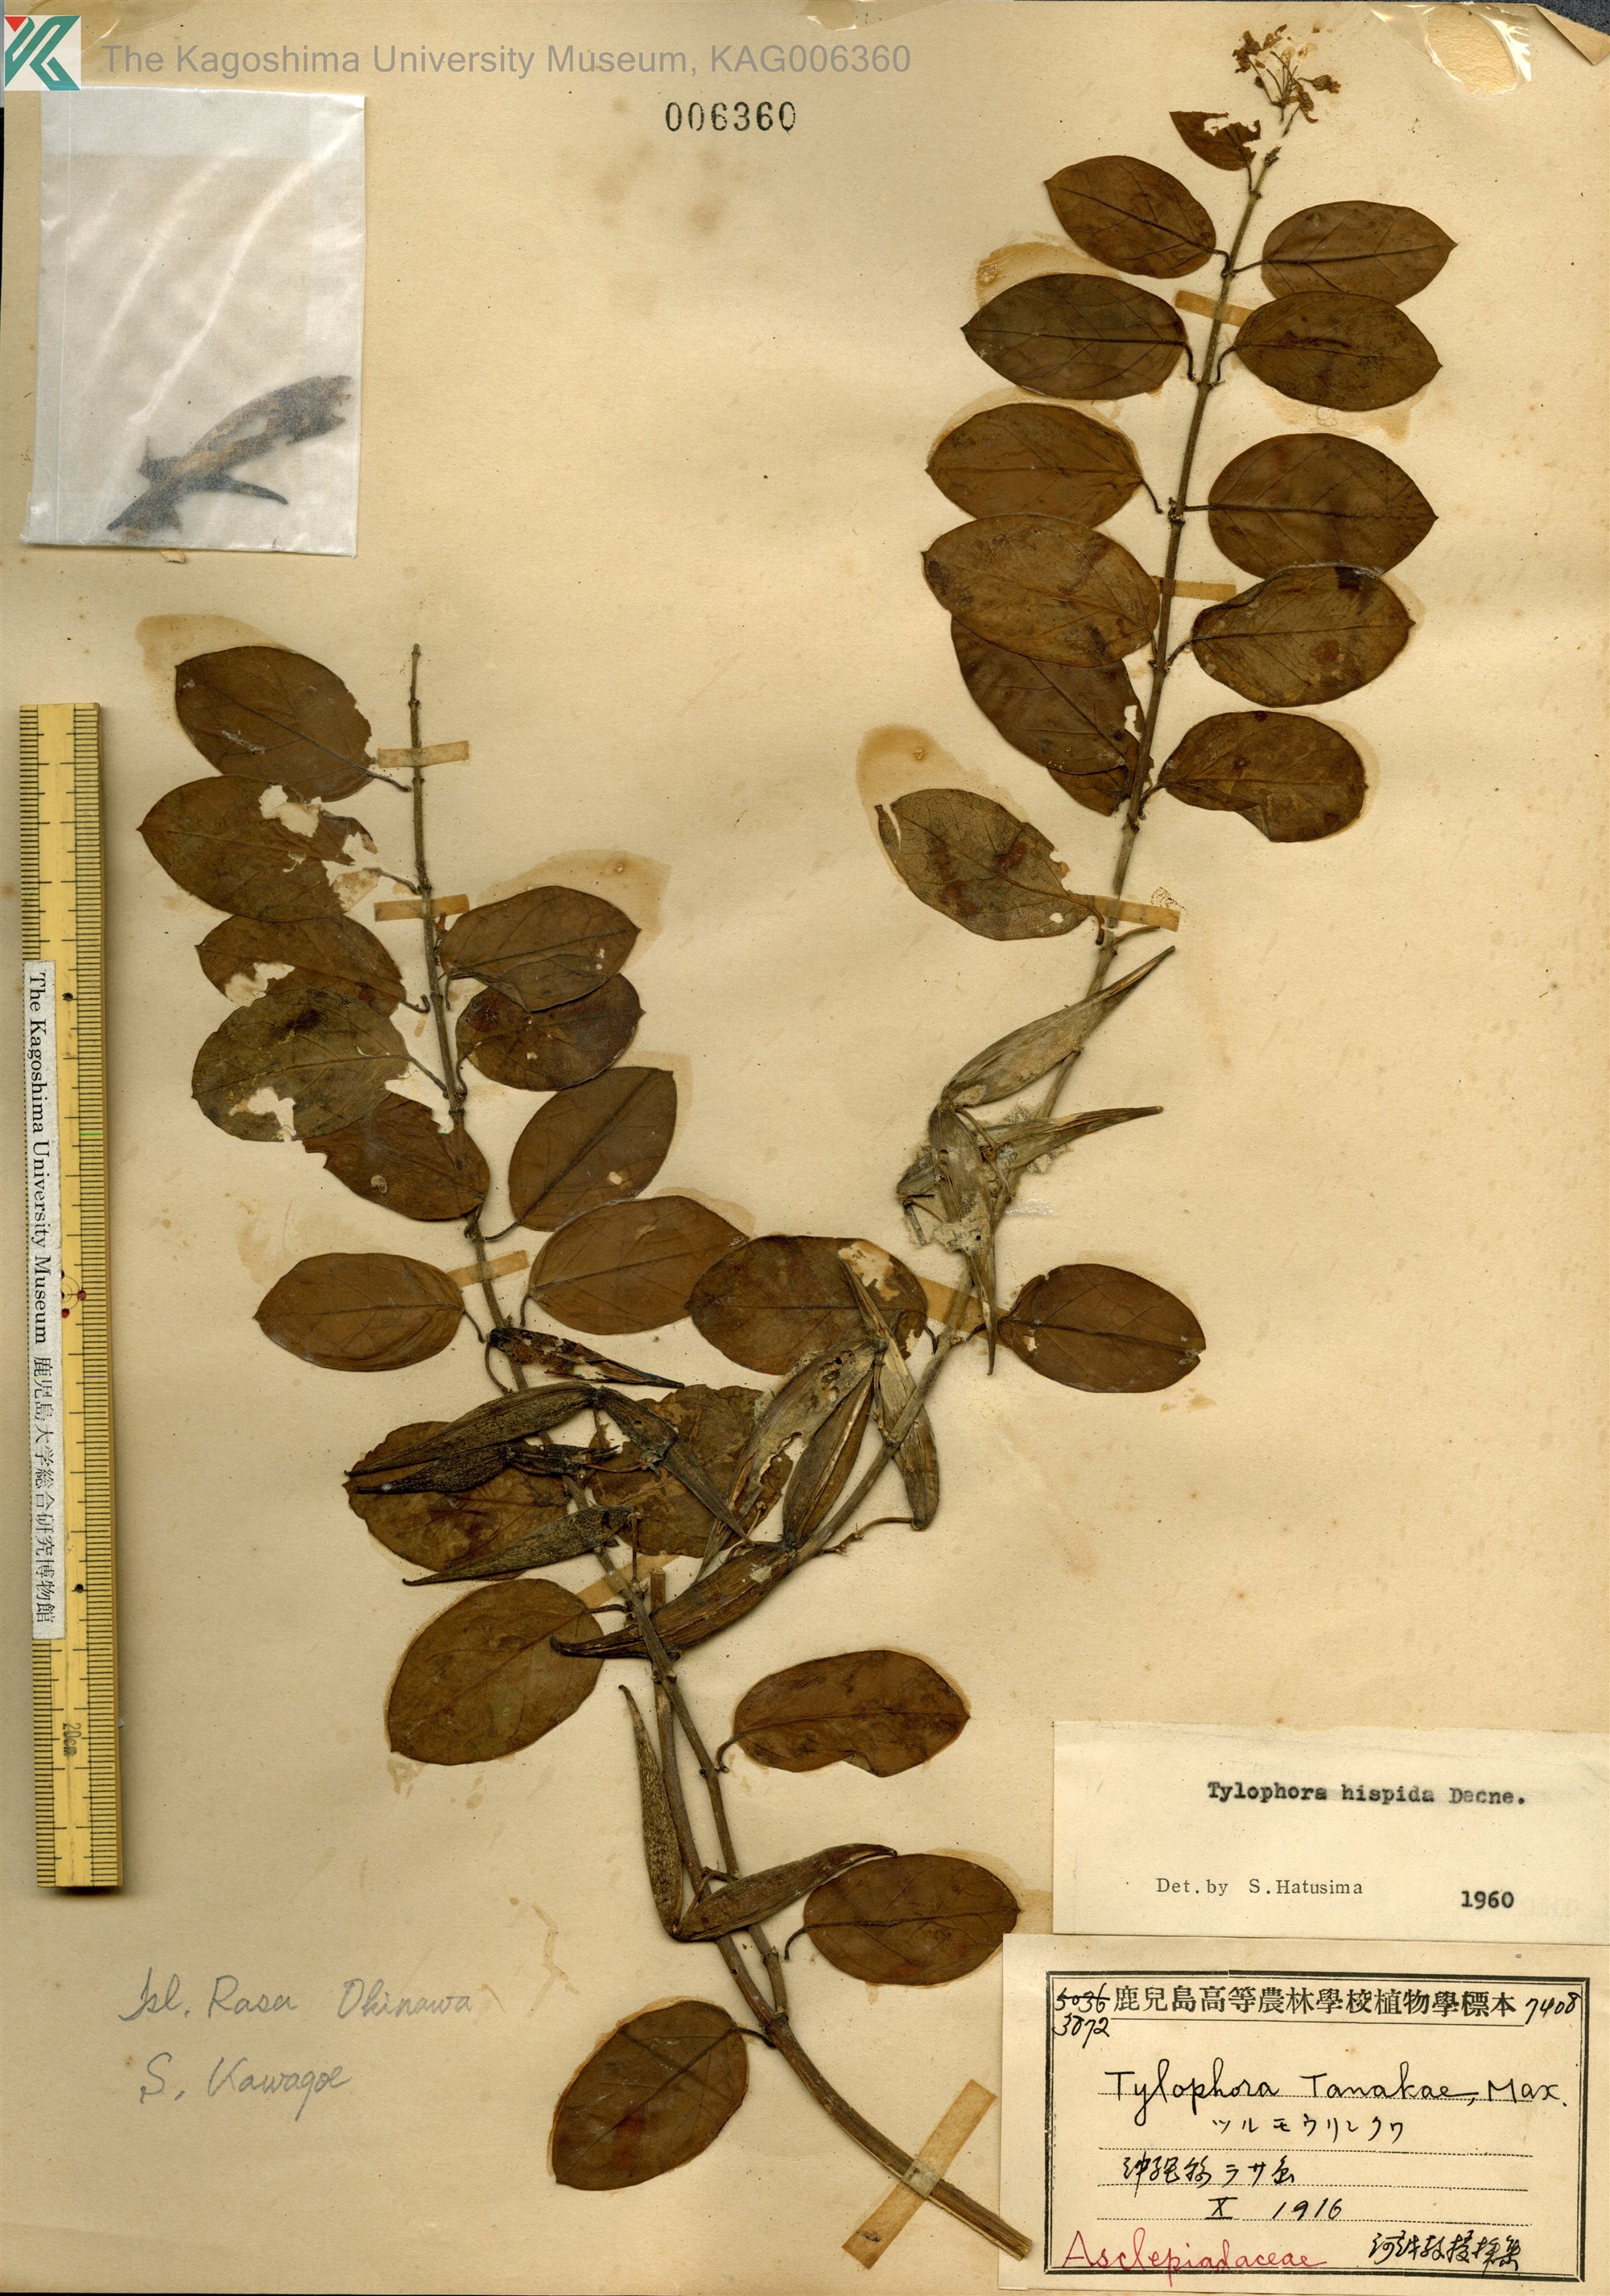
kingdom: Plantae
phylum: Tracheophyta
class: Magnoliopsida
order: Gentianales
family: Apocynaceae
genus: Vincetoxicum
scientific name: Vincetoxicum hirsutum
